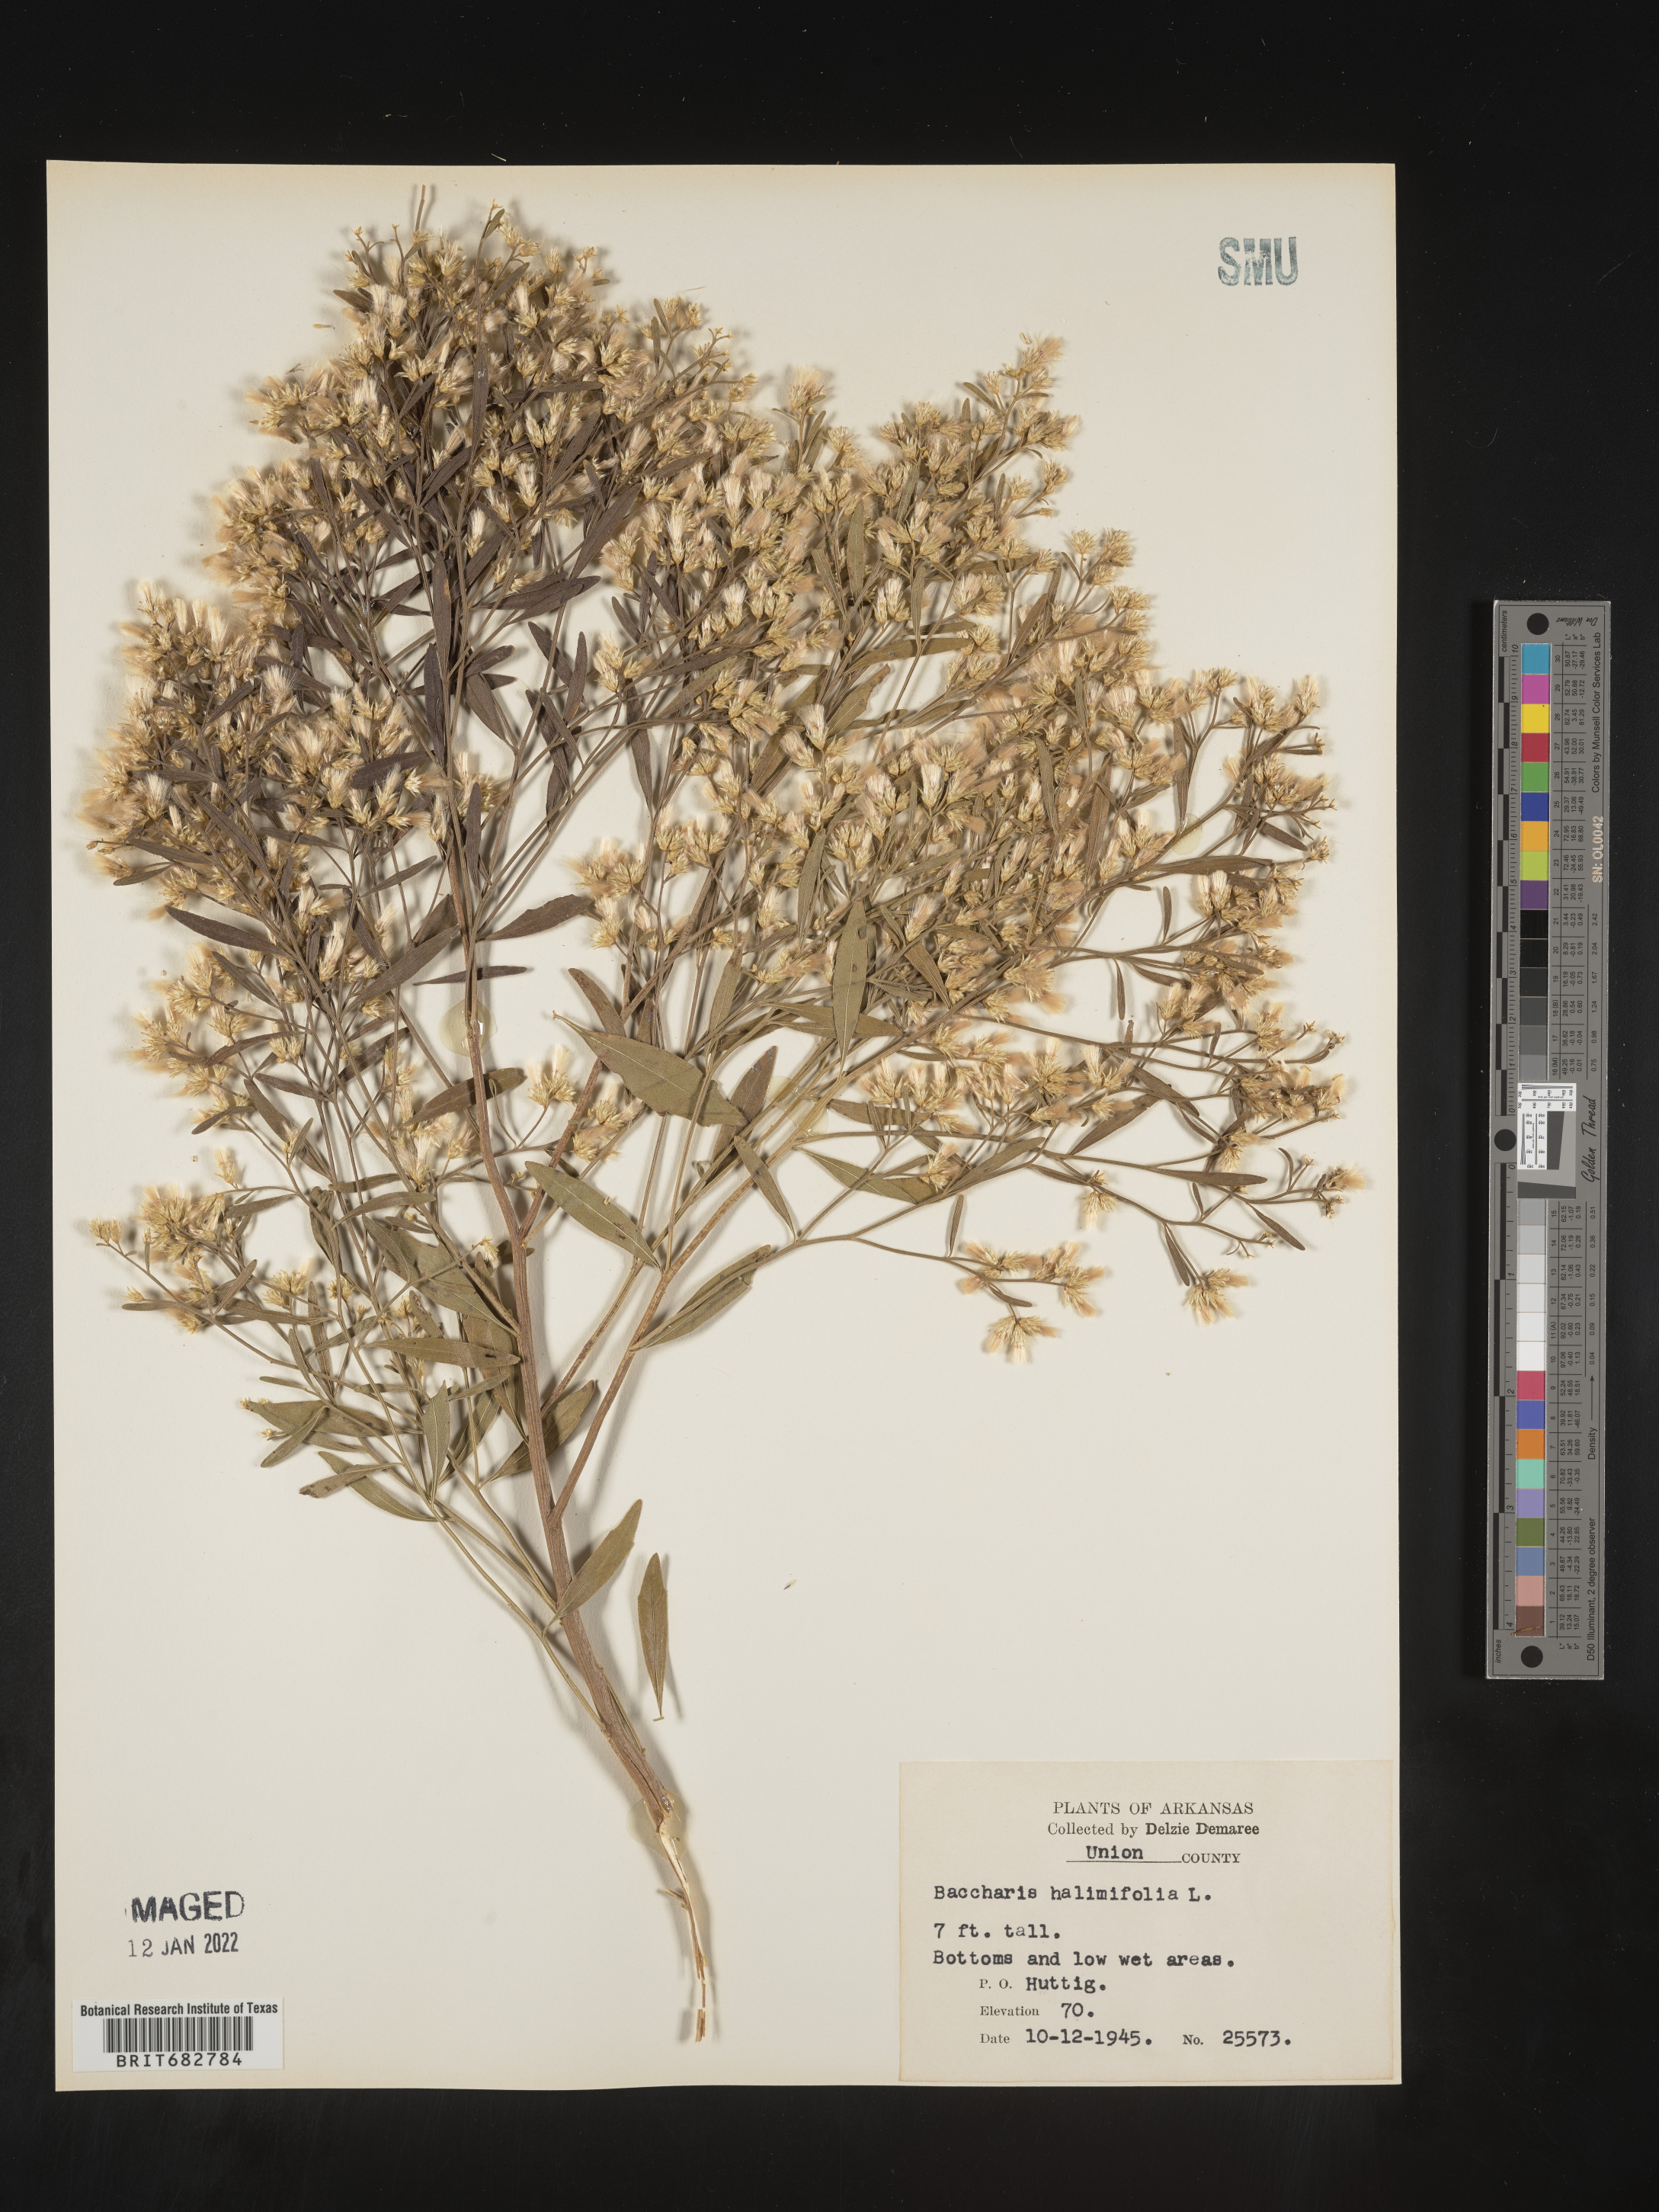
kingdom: Plantae
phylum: Tracheophyta
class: Magnoliopsida
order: Asterales
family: Asteraceae
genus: Nidorella
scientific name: Nidorella ivifolia
